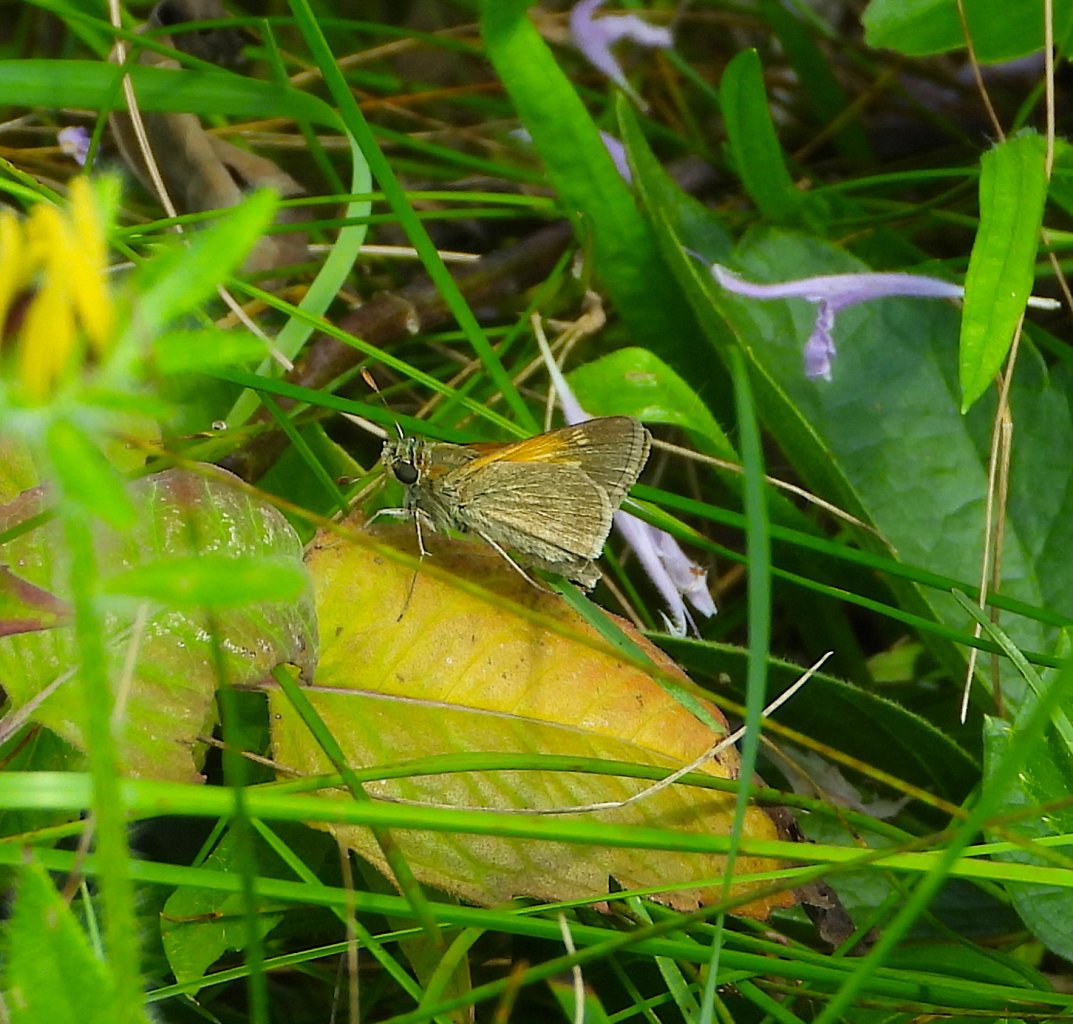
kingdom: Animalia
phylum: Arthropoda
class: Insecta
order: Lepidoptera
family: Hesperiidae
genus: Polites
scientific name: Polites themistocles
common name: Tawny-edged Skipper
